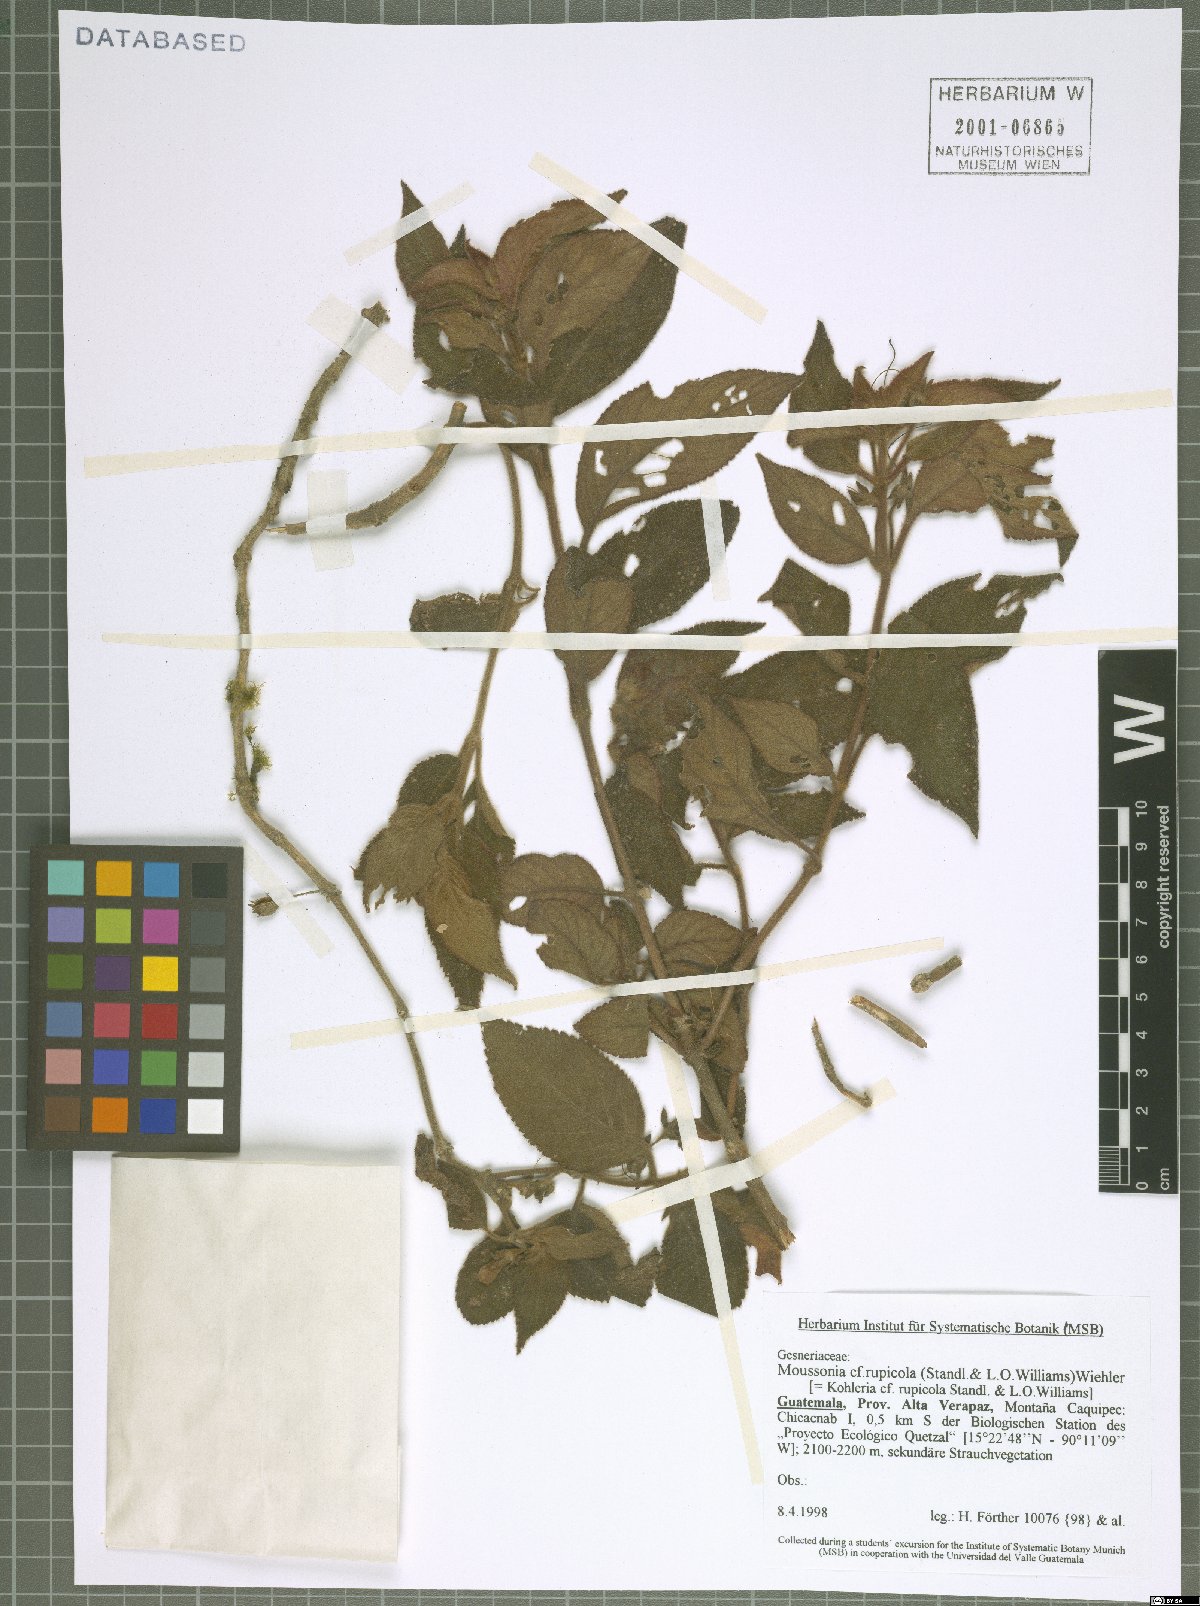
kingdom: Plantae
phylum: Tracheophyta
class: Magnoliopsida
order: Lamiales
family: Gesneriaceae
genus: Moussonia
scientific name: Moussonia rupicola
